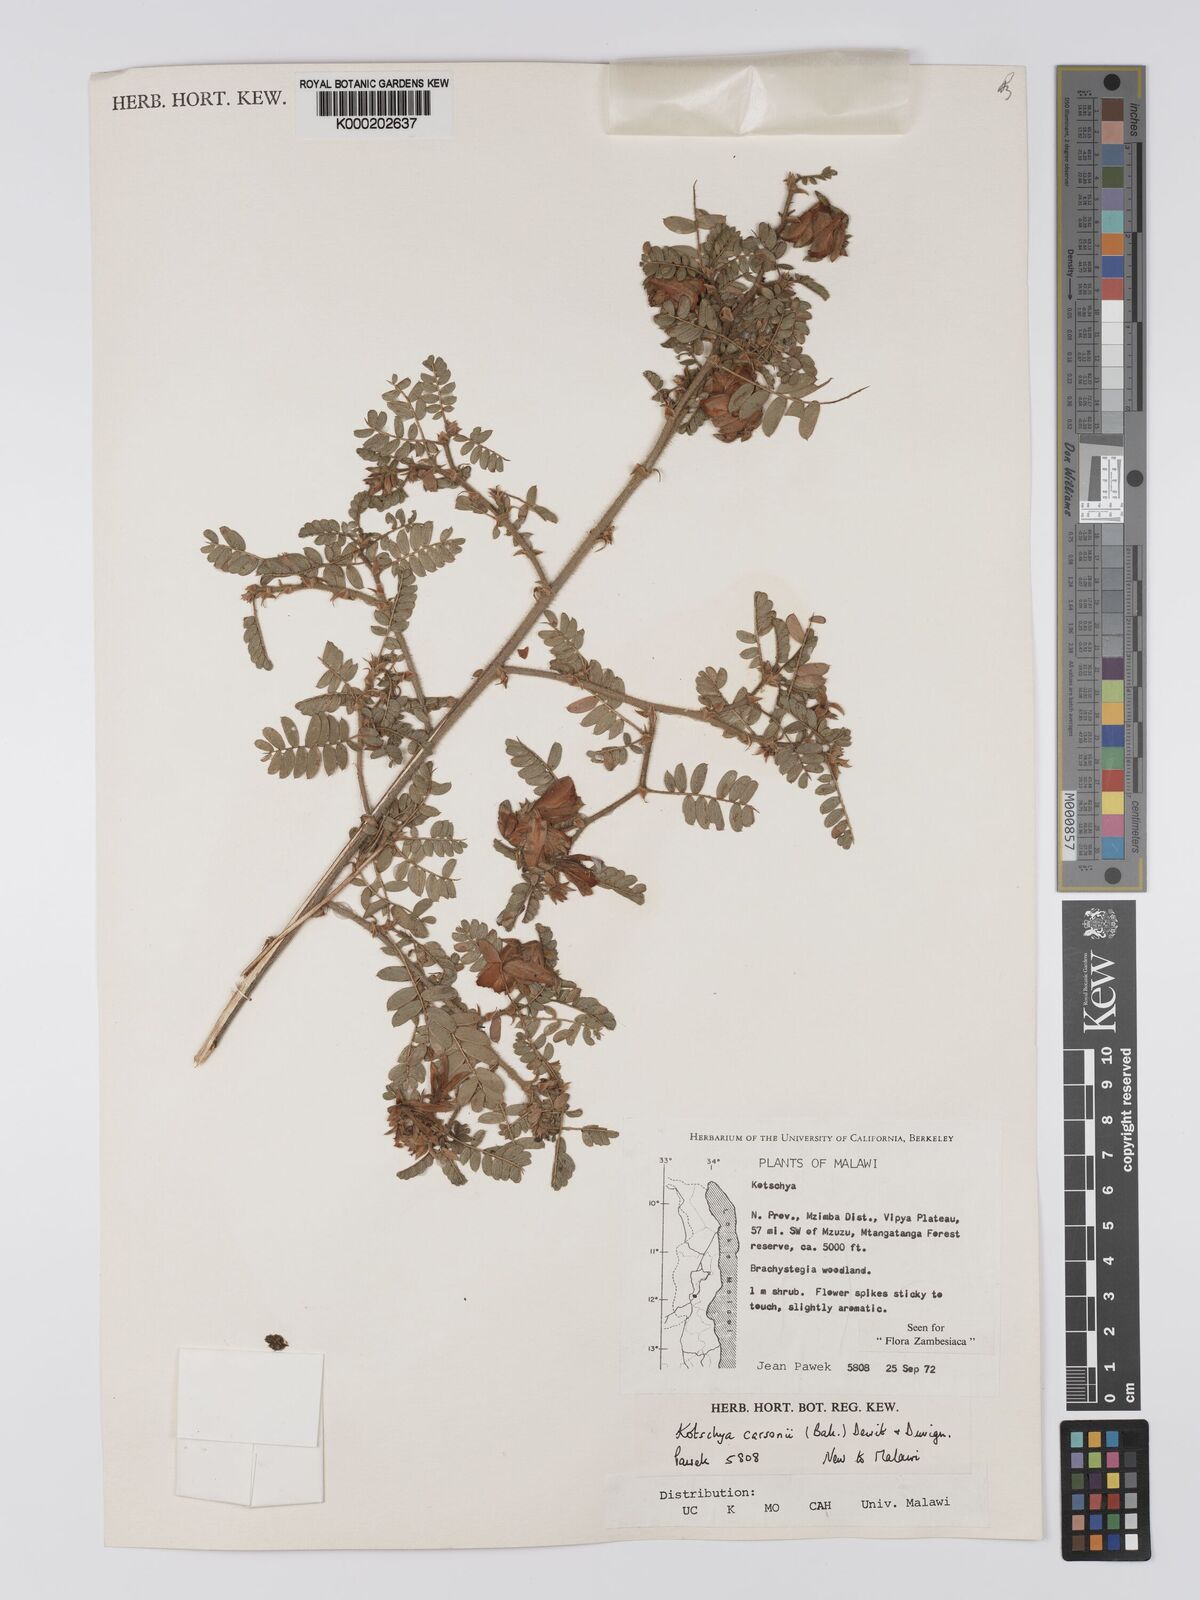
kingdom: Plantae
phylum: Tracheophyta
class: Magnoliopsida
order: Fabales
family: Fabaceae
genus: Kotschya
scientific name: Kotschya carsonii
